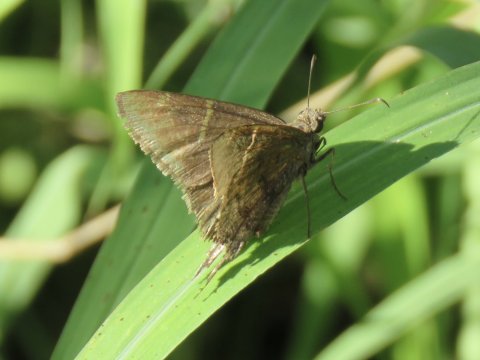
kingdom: Animalia
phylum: Arthropoda
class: Insecta
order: Lepidoptera
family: Hesperiidae
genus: Urbanus
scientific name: Urbanus procne
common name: Brown Longtail
